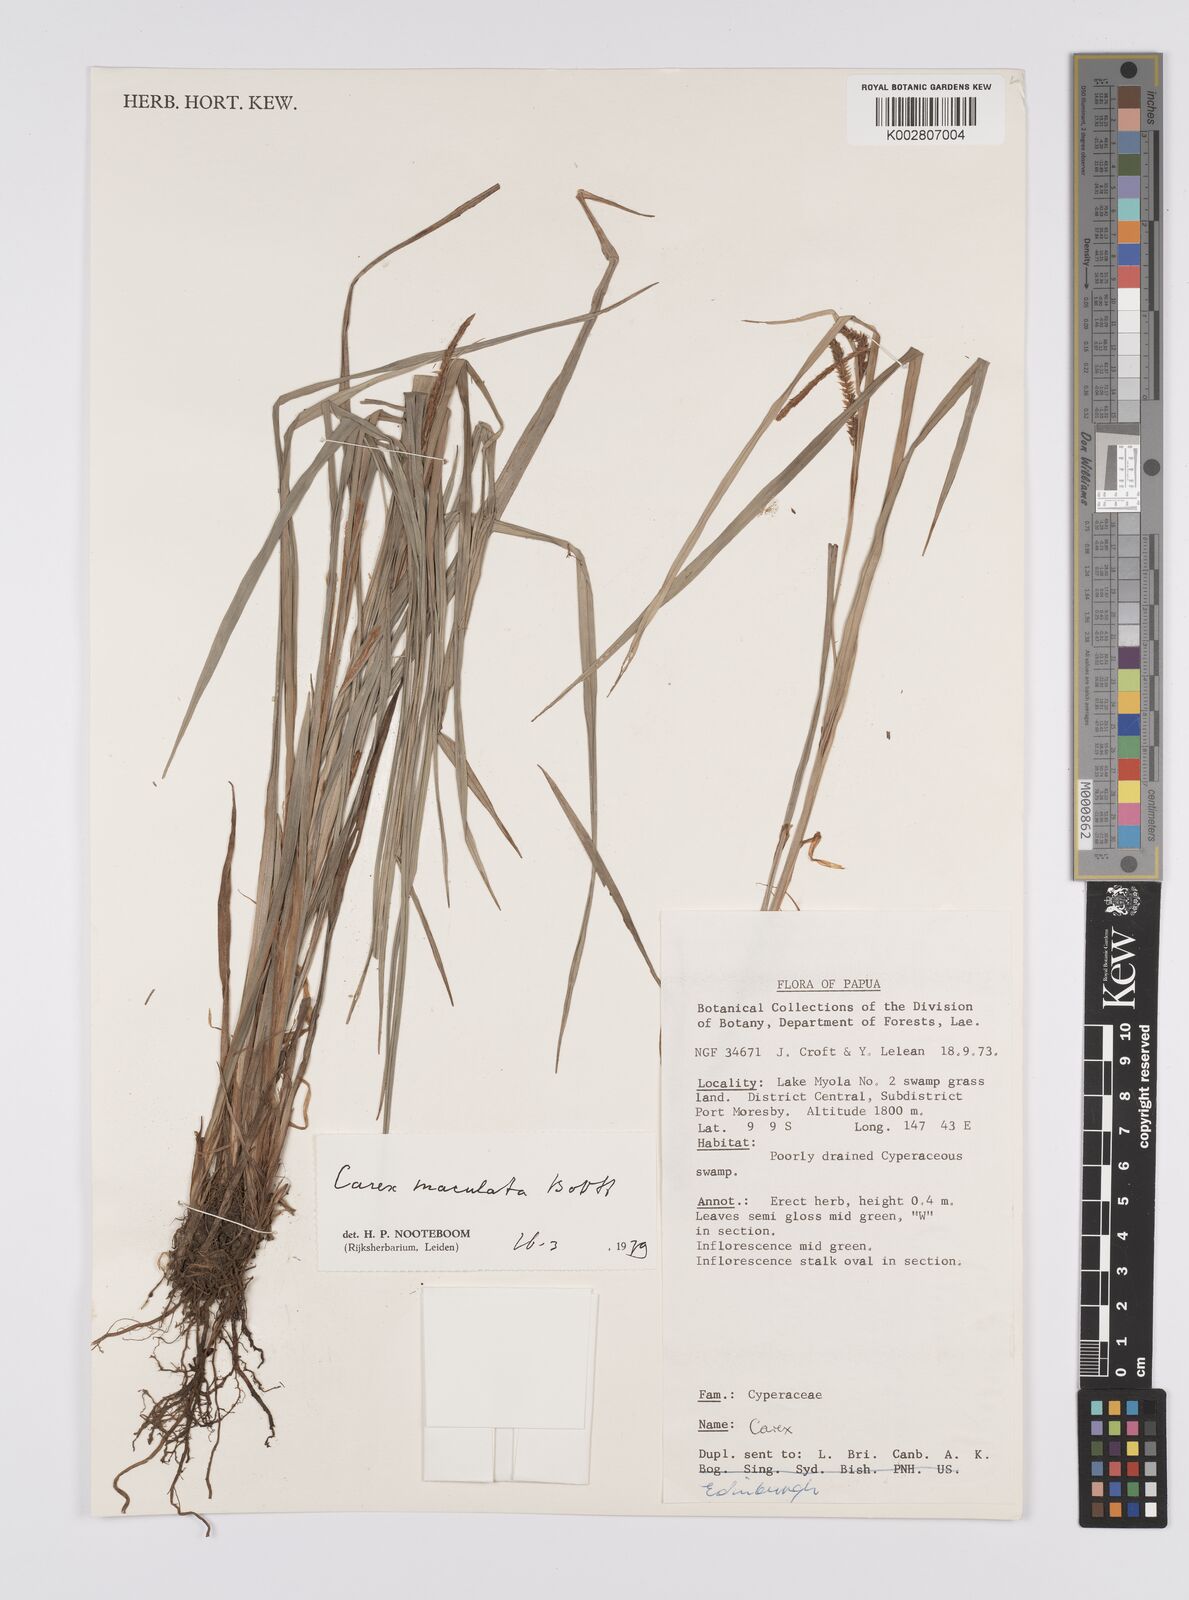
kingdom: Plantae
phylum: Tracheophyta
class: Liliopsida
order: Poales
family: Cyperaceae
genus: Carex
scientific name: Carex maculata
